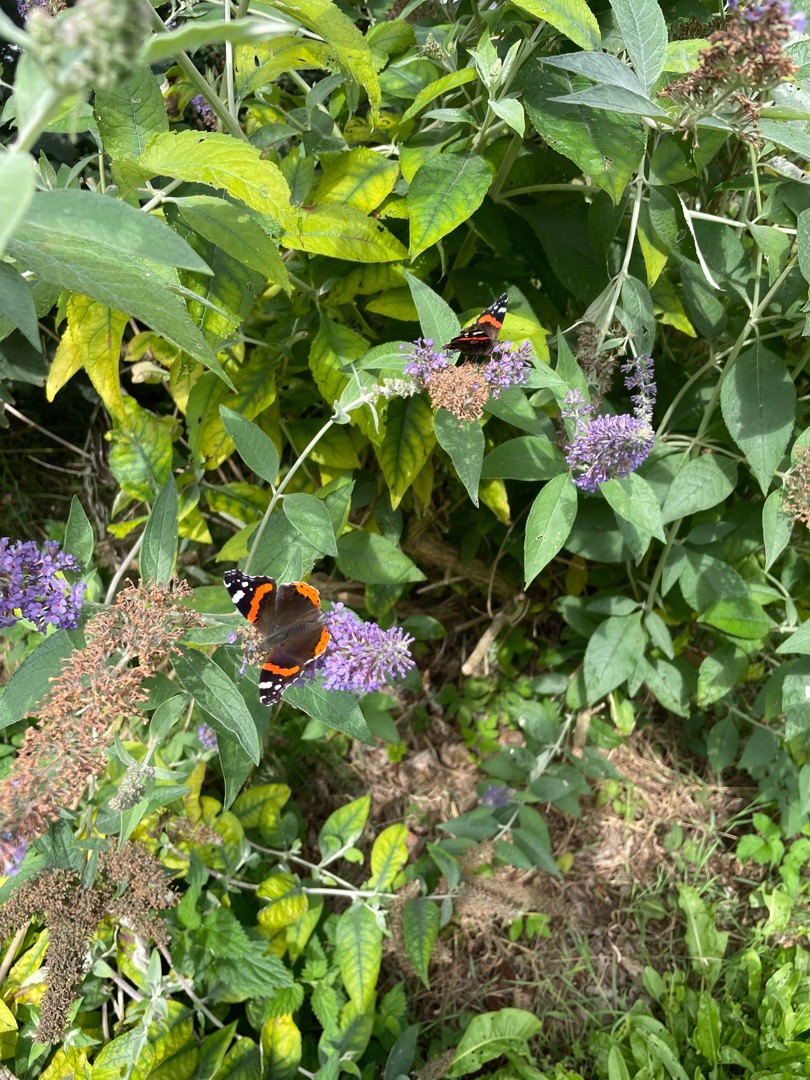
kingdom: Animalia
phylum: Arthropoda
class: Insecta
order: Lepidoptera
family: Nymphalidae
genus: Vanessa
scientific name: Vanessa atalanta
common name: Admiral
